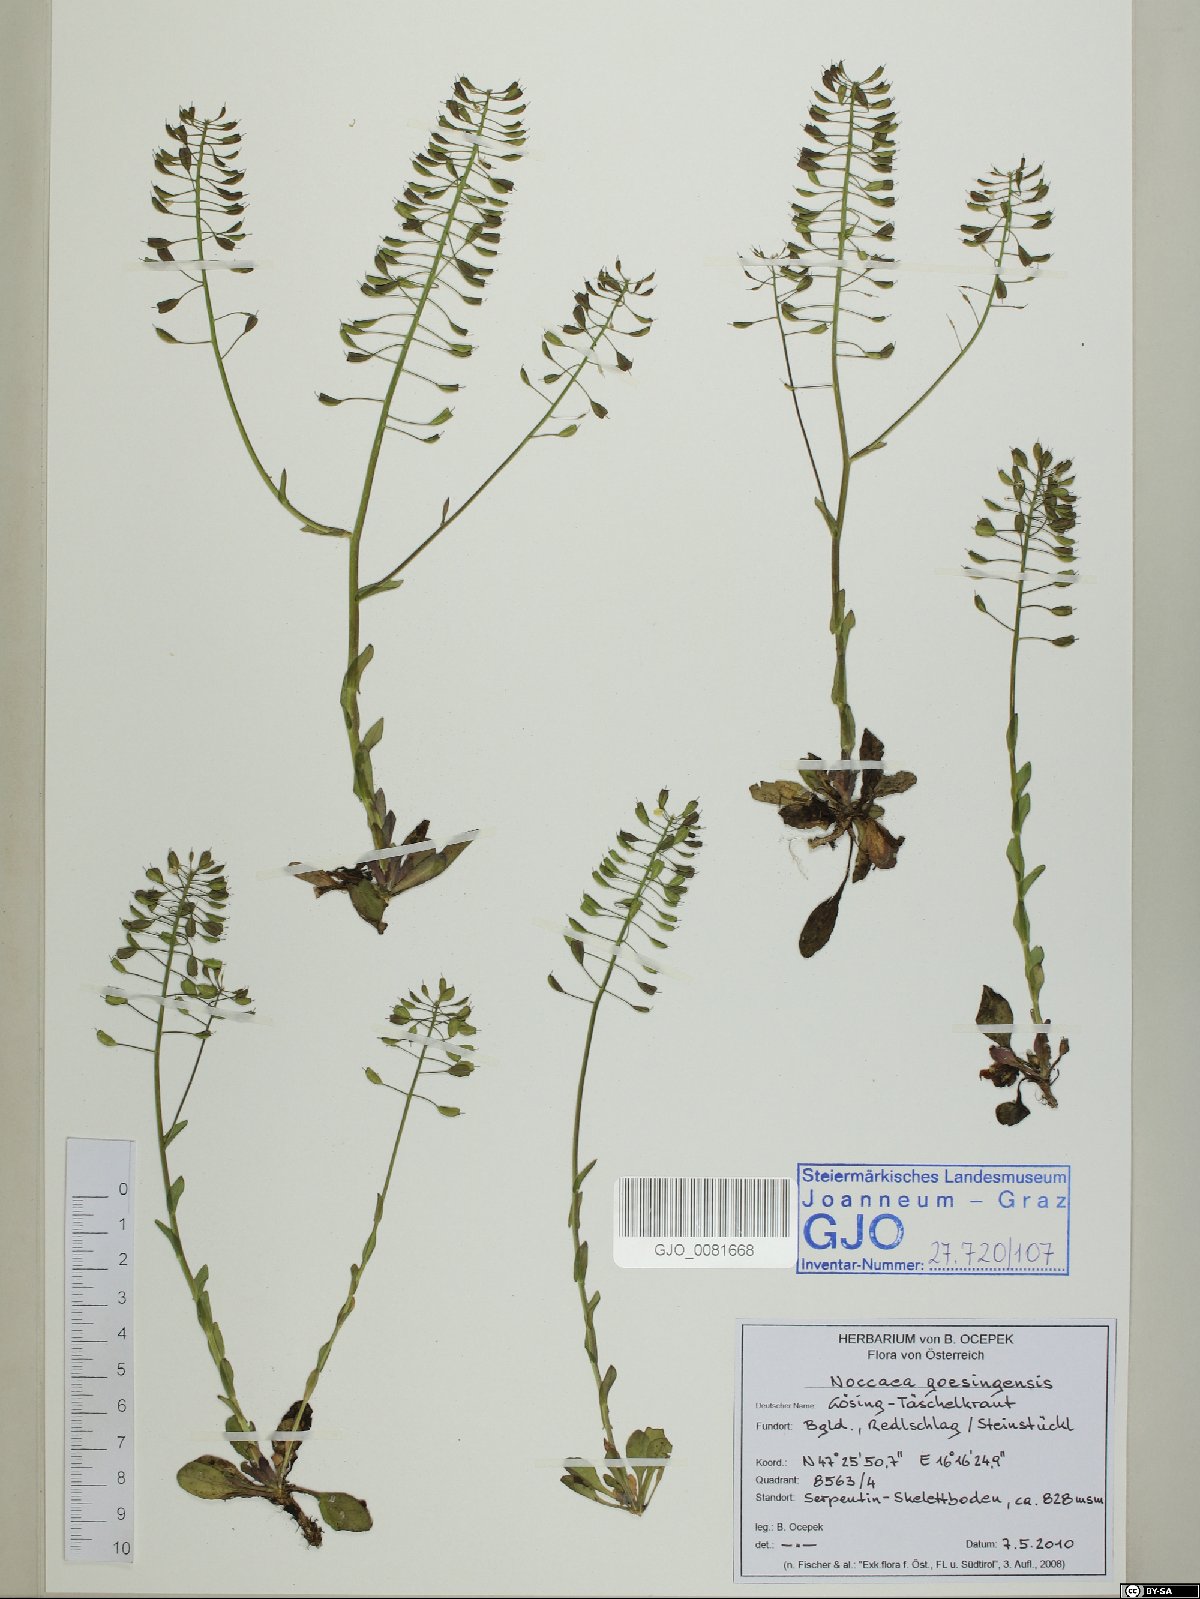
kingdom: Plantae
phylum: Tracheophyta
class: Magnoliopsida
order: Brassicales
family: Brassicaceae
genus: Noccaea
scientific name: Noccaea goesingensis
